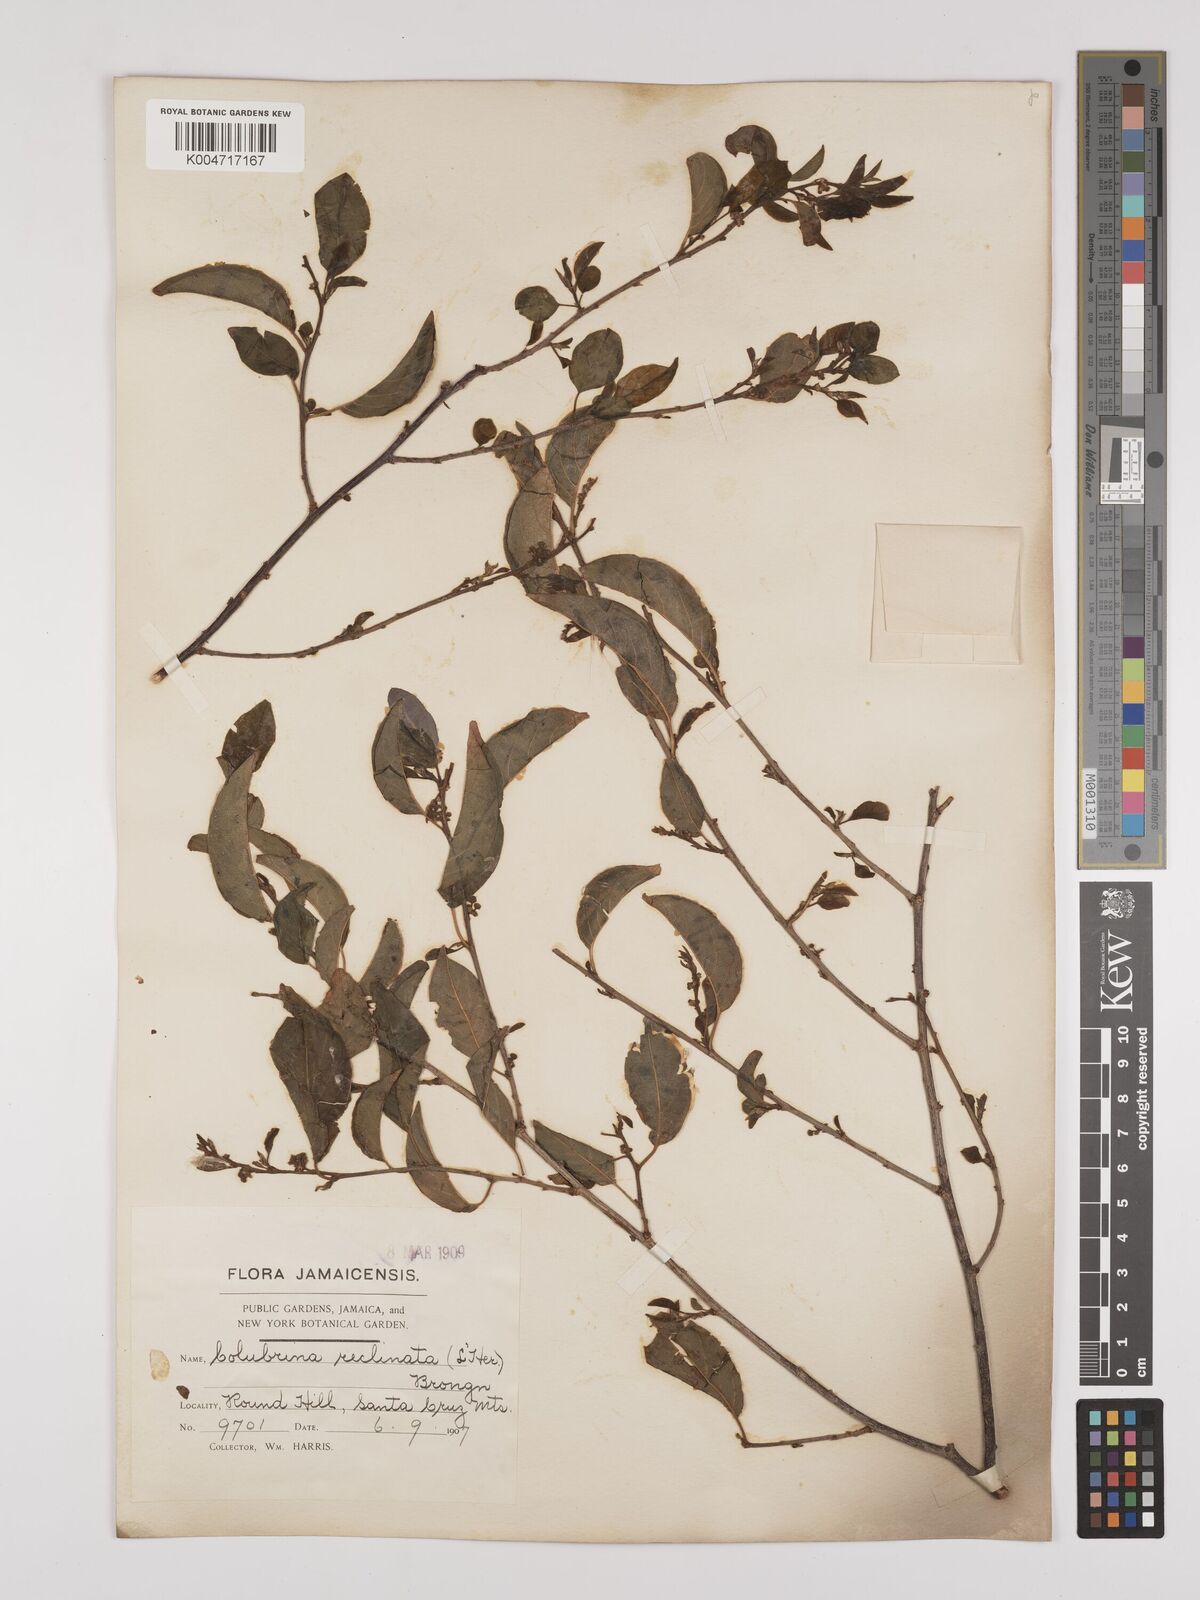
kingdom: Plantae
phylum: Tracheophyta
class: Magnoliopsida
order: Rosales
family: Rhamnaceae
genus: Colubrina
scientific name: Colubrina elliptica
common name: Soldierwood
